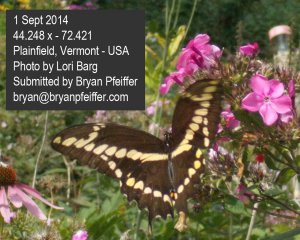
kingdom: Animalia
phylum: Arthropoda
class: Insecta
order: Lepidoptera
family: Papilionidae
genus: Papilio
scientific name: Papilio cresphontes
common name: Eastern Giant Swallowtail
